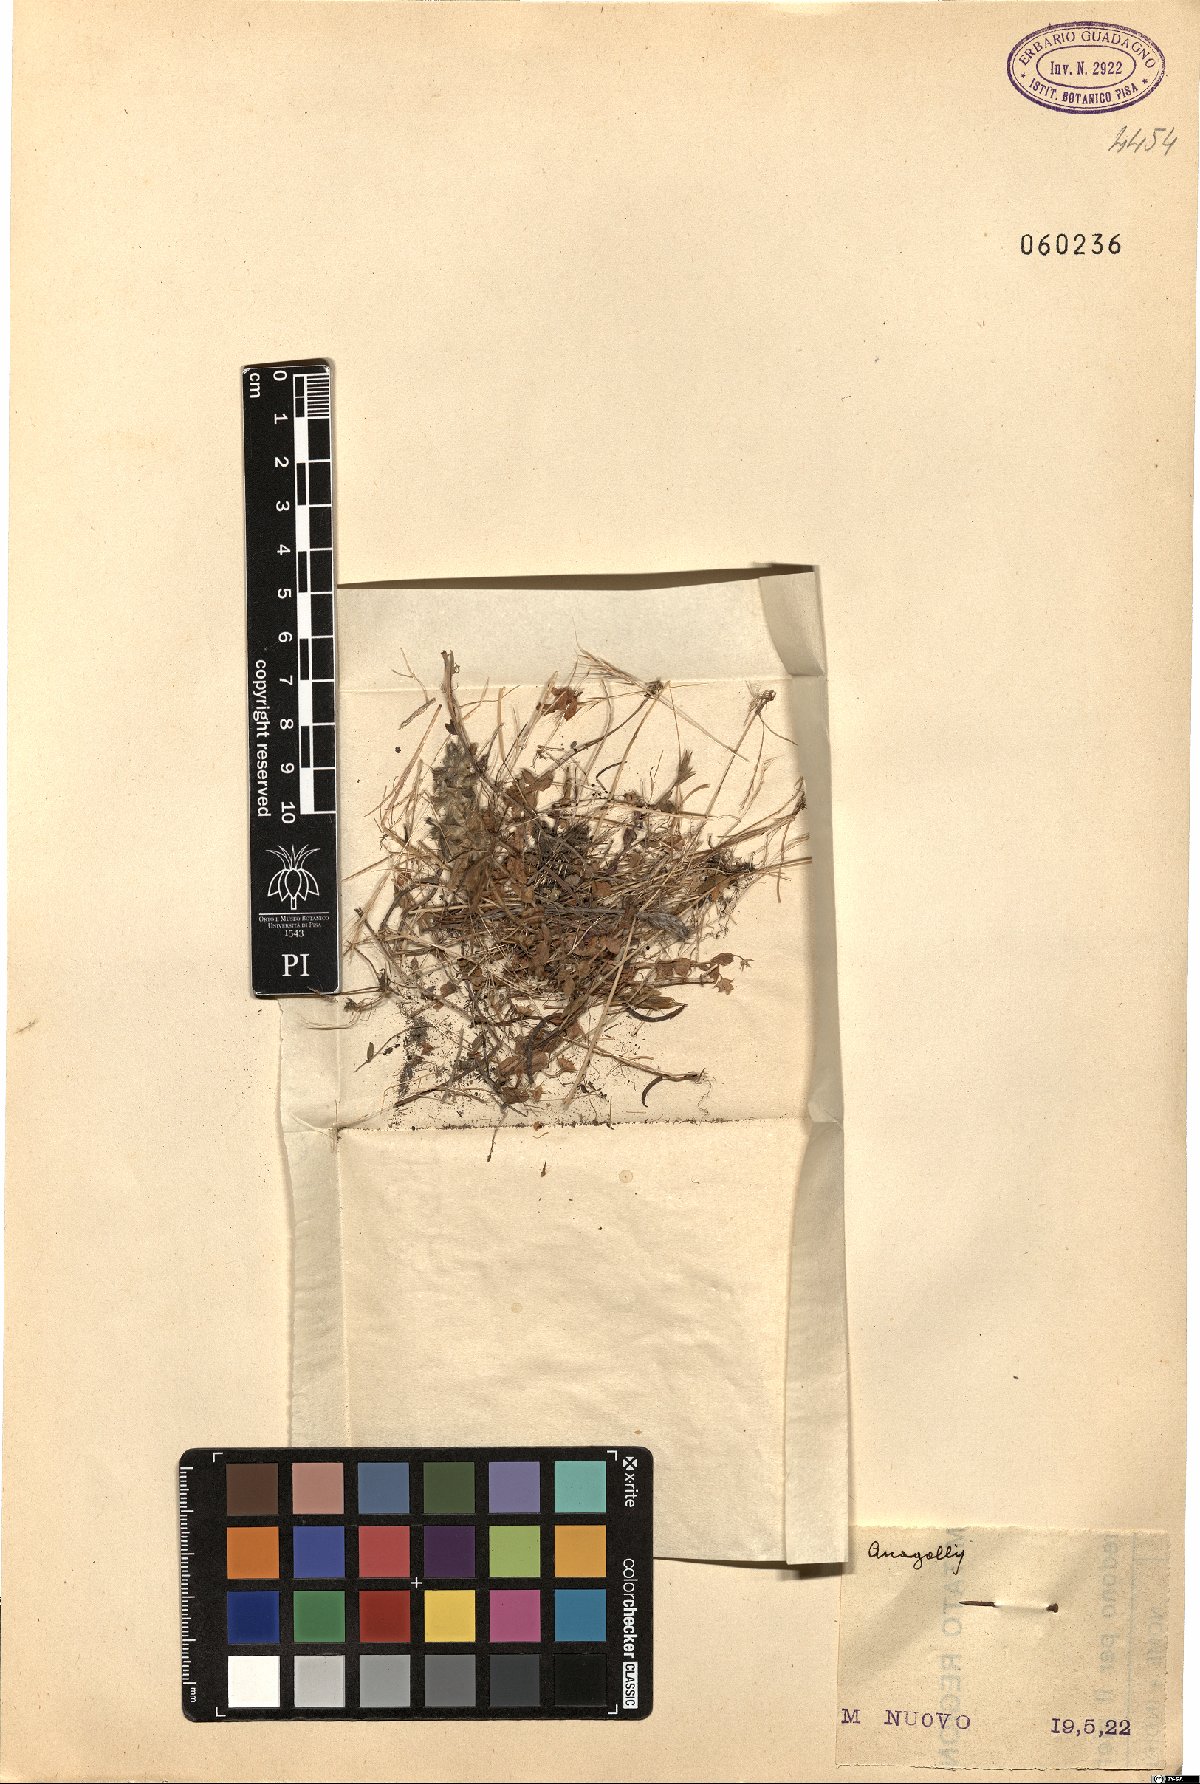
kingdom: Plantae
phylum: Tracheophyta
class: Magnoliopsida
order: Ericales
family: Primulaceae
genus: Lysimachia
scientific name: Lysimachia Anagallis spec
